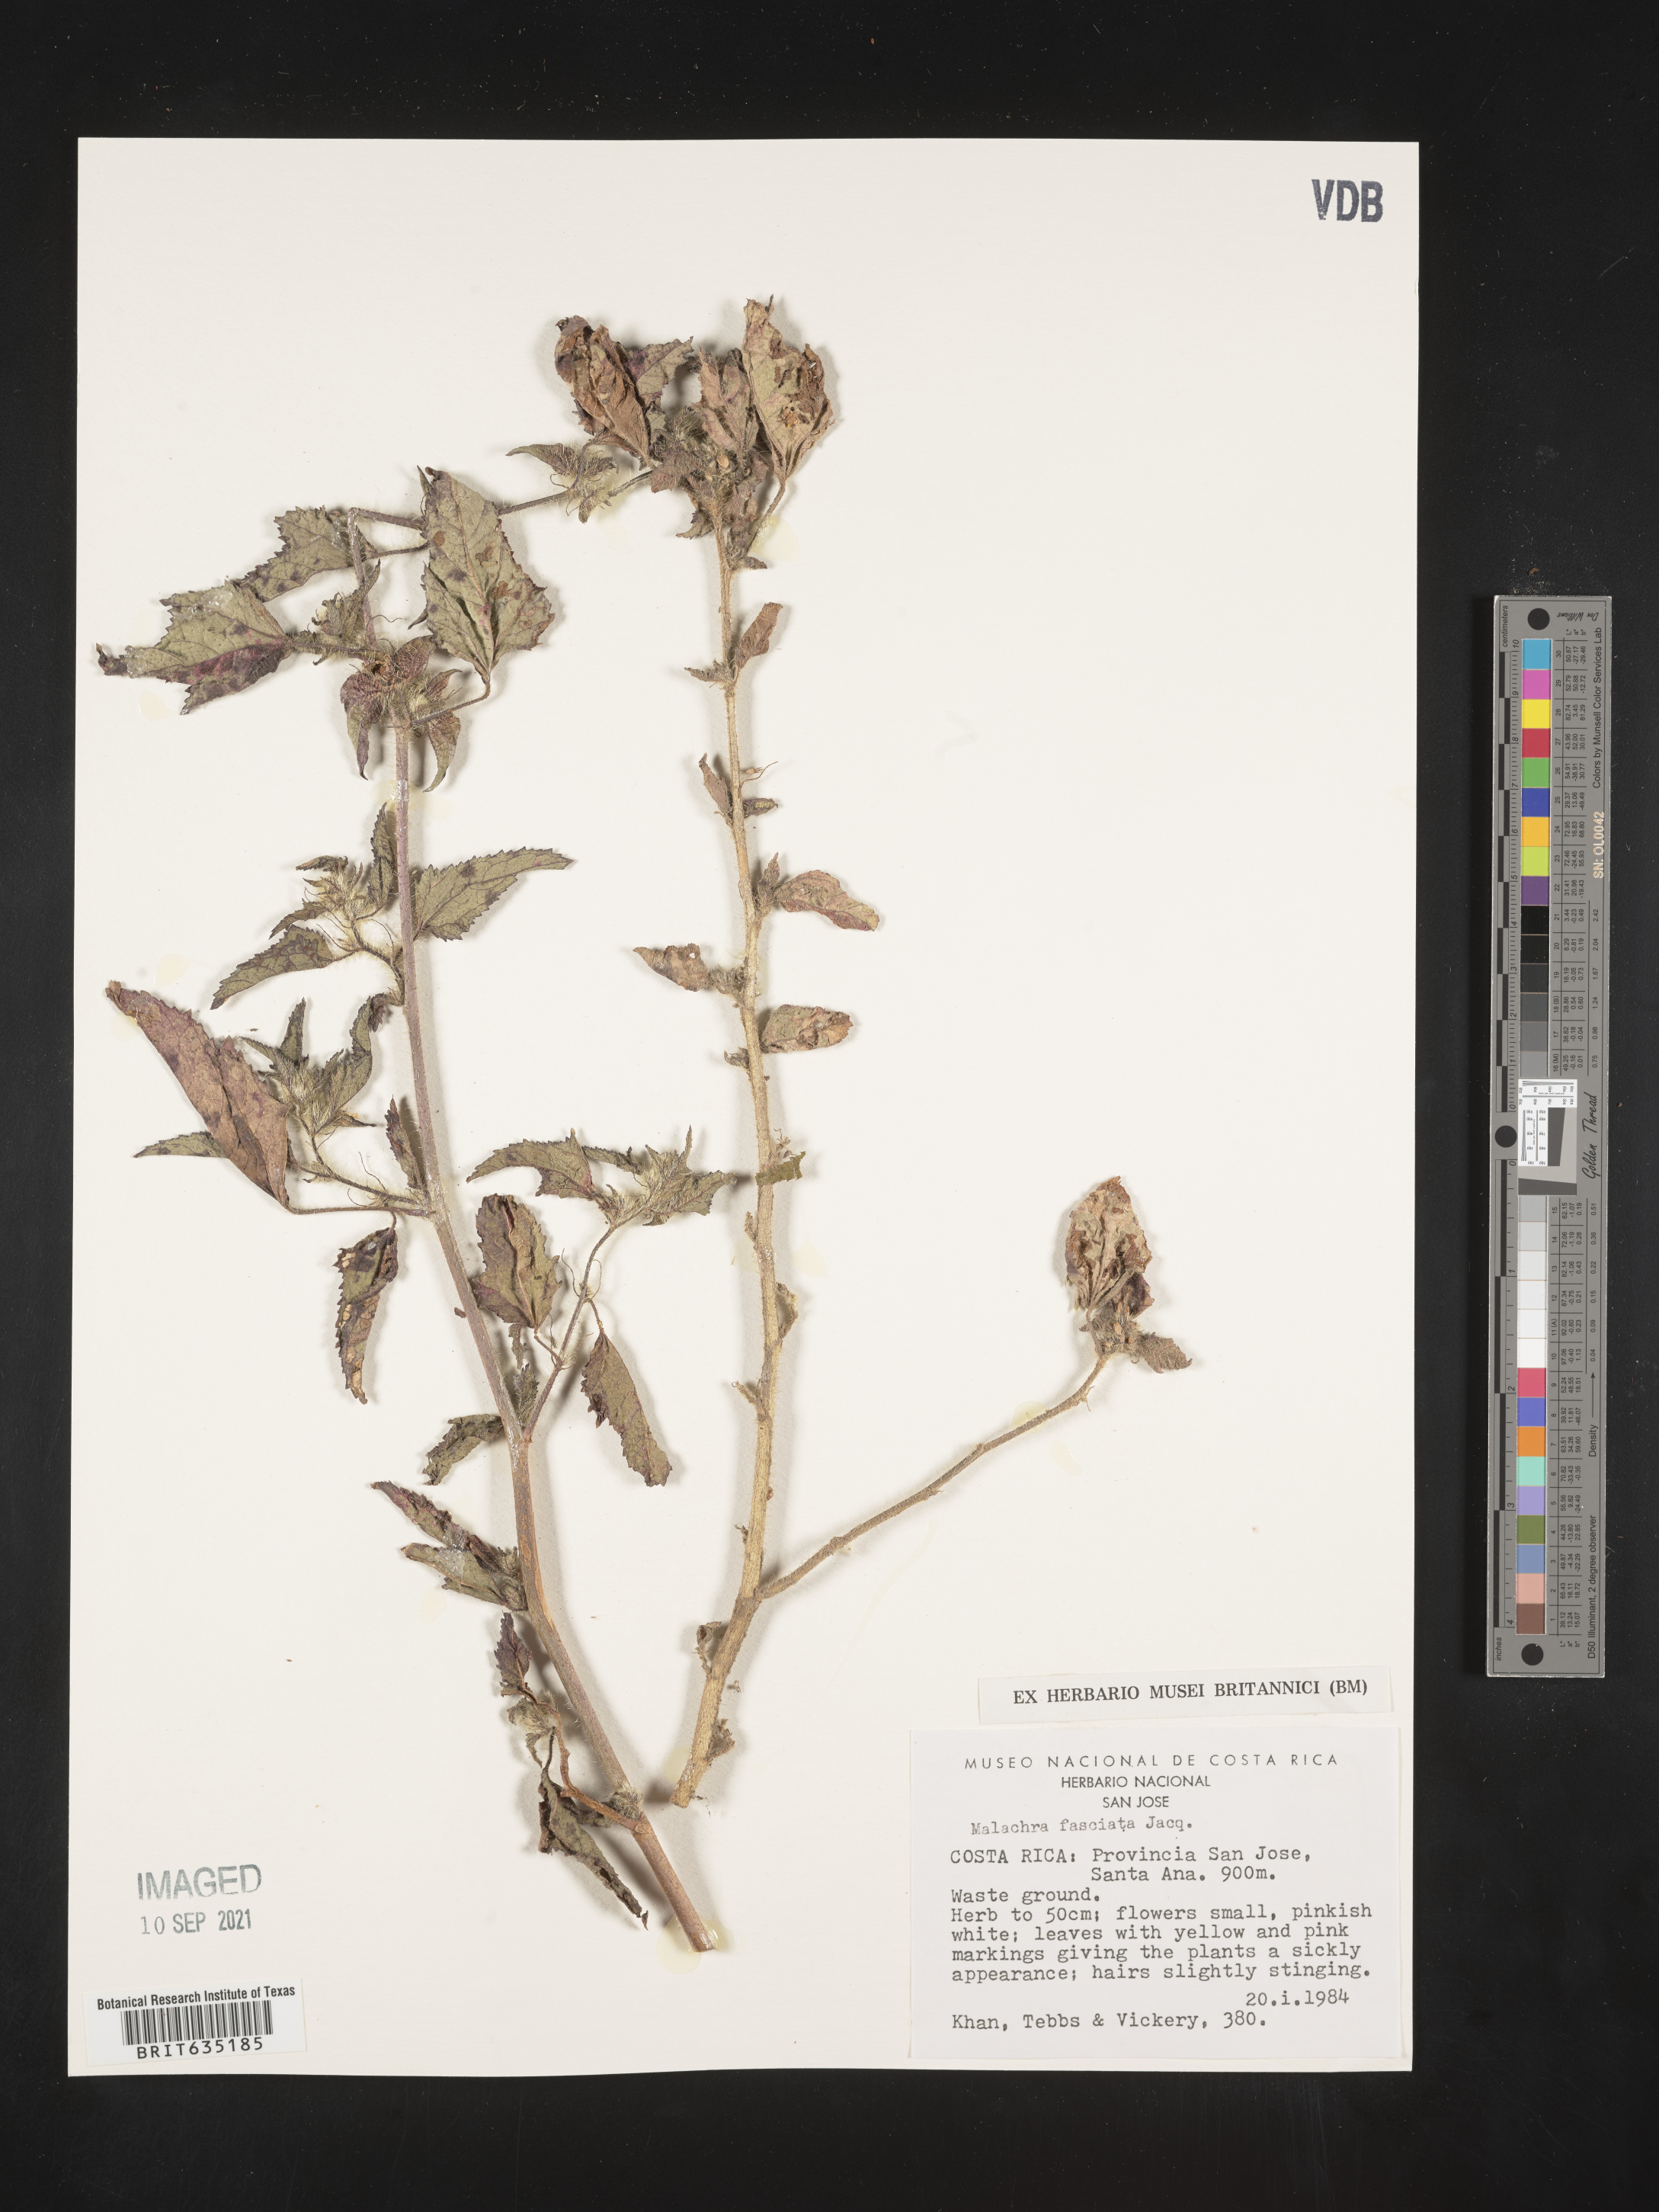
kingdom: Plantae
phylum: Tracheophyta
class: Magnoliopsida
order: Malvales
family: Malvaceae
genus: Malachra
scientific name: Malachra
